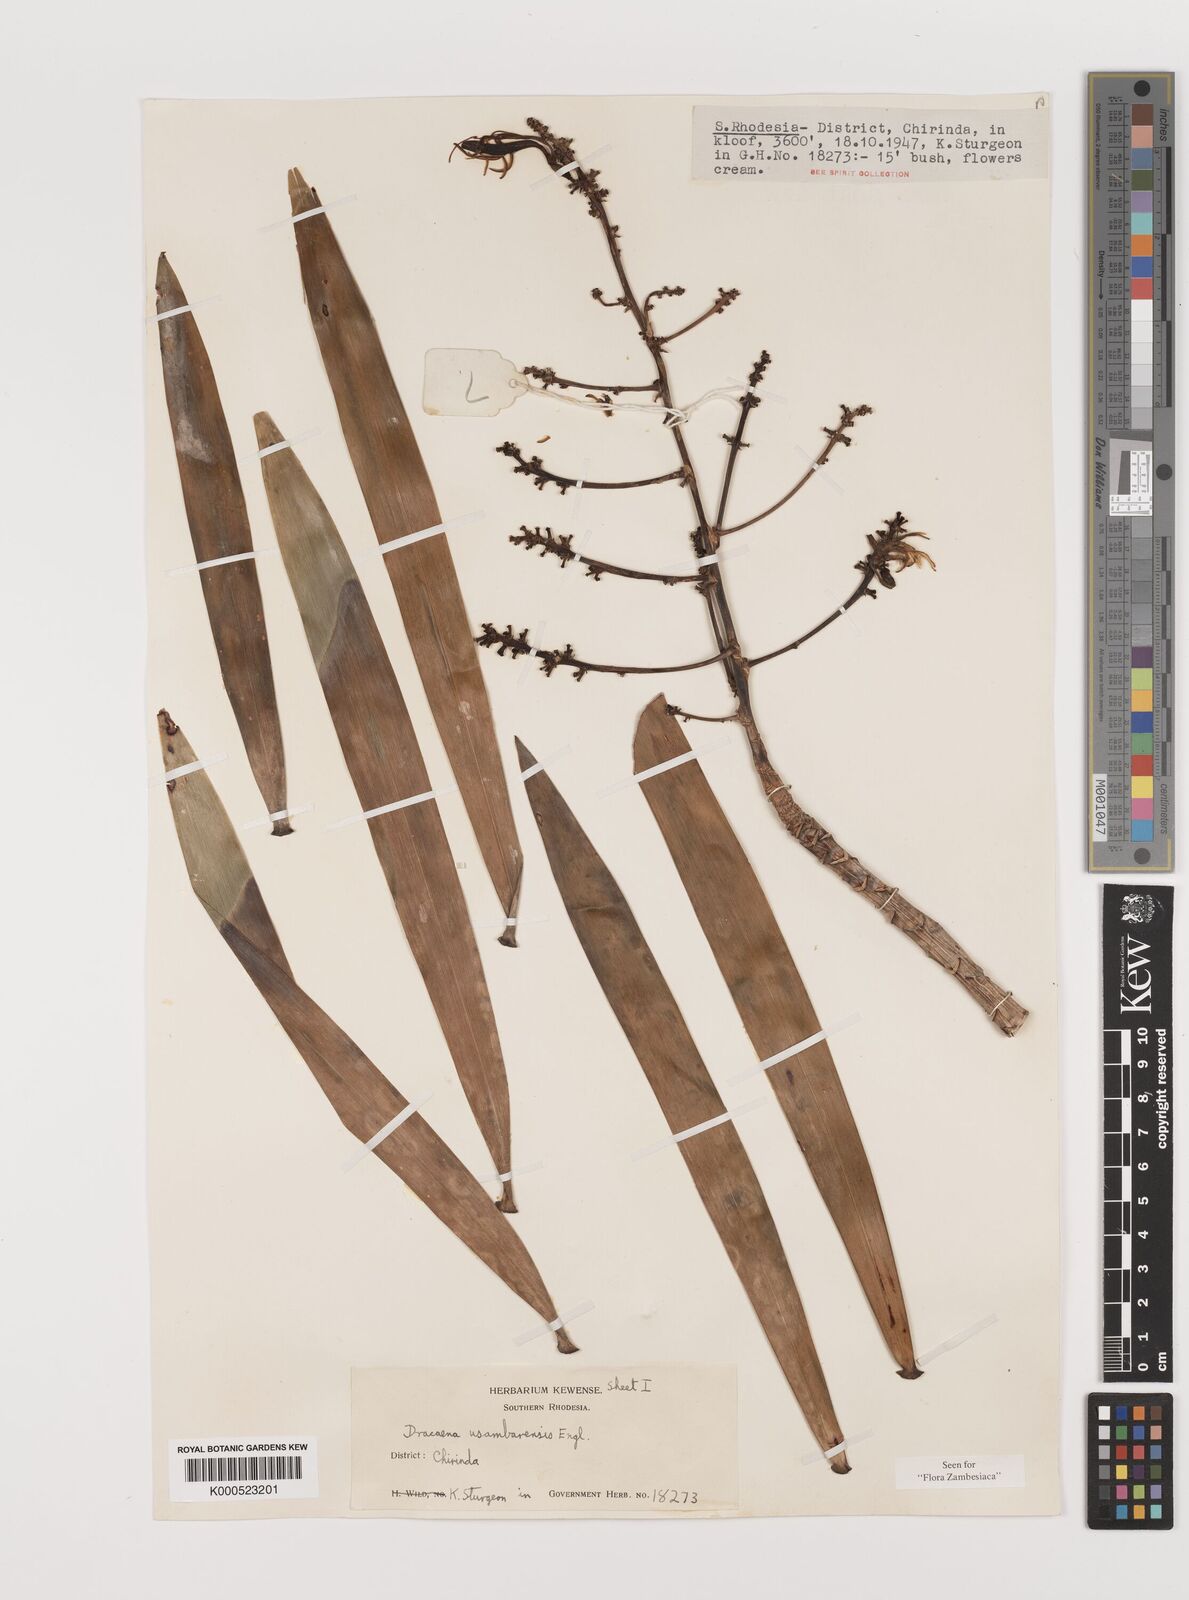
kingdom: Plantae
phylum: Tracheophyta
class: Liliopsida
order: Asparagales
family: Asparagaceae
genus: Dracaena
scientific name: Dracaena usambarensis
